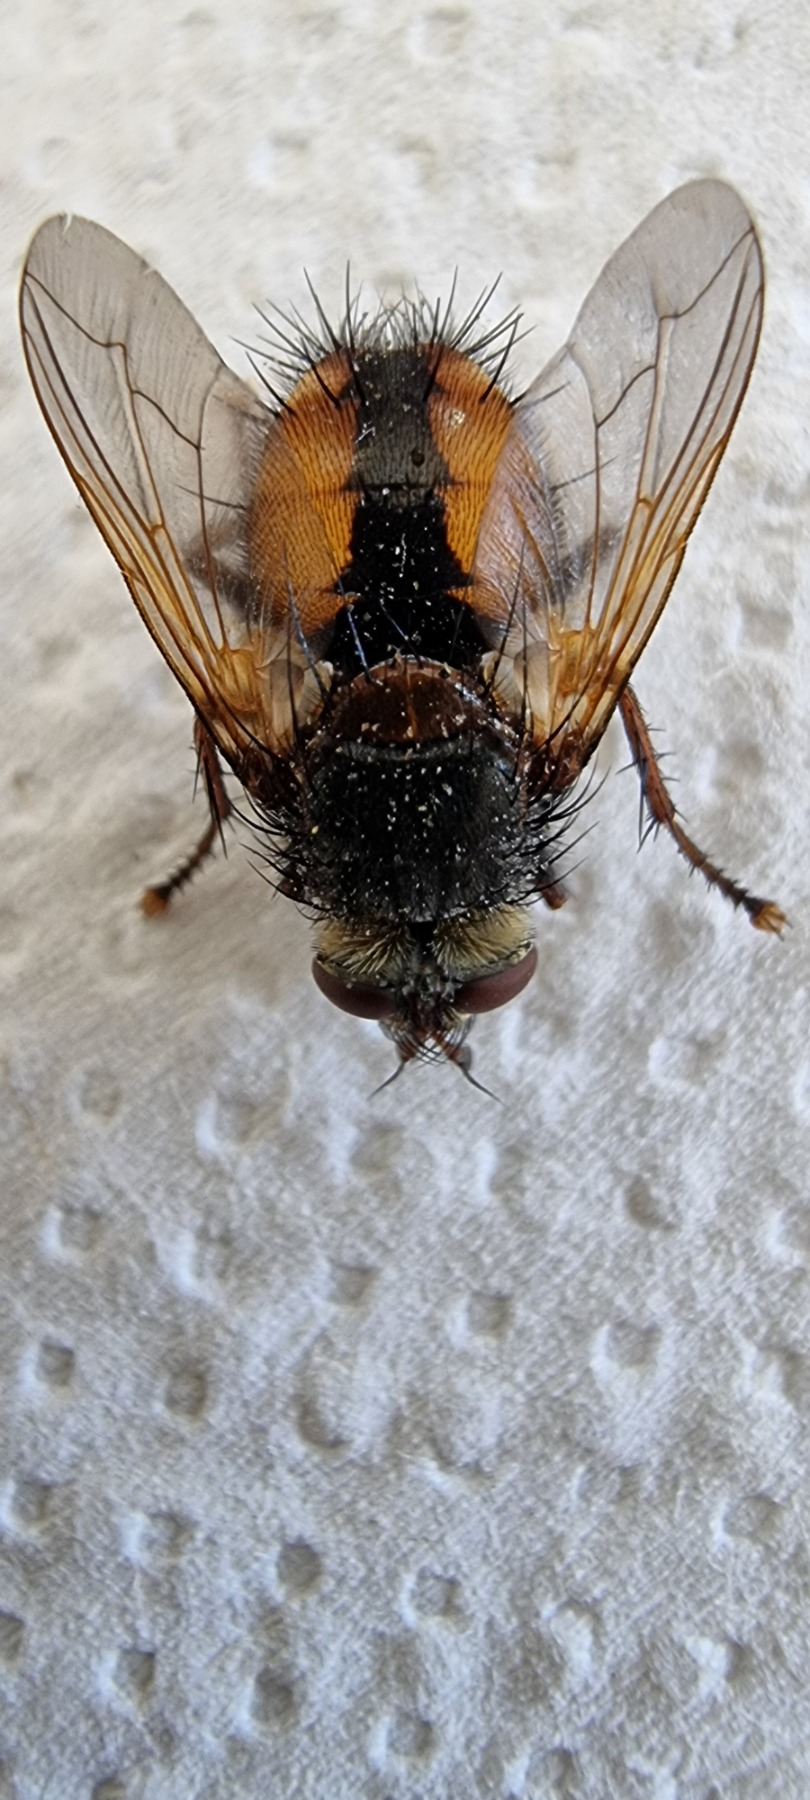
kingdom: Animalia
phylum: Arthropoda
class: Insecta
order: Diptera
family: Tachinidae
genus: Tachina
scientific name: Tachina fera
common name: Mellemfluen oskar
